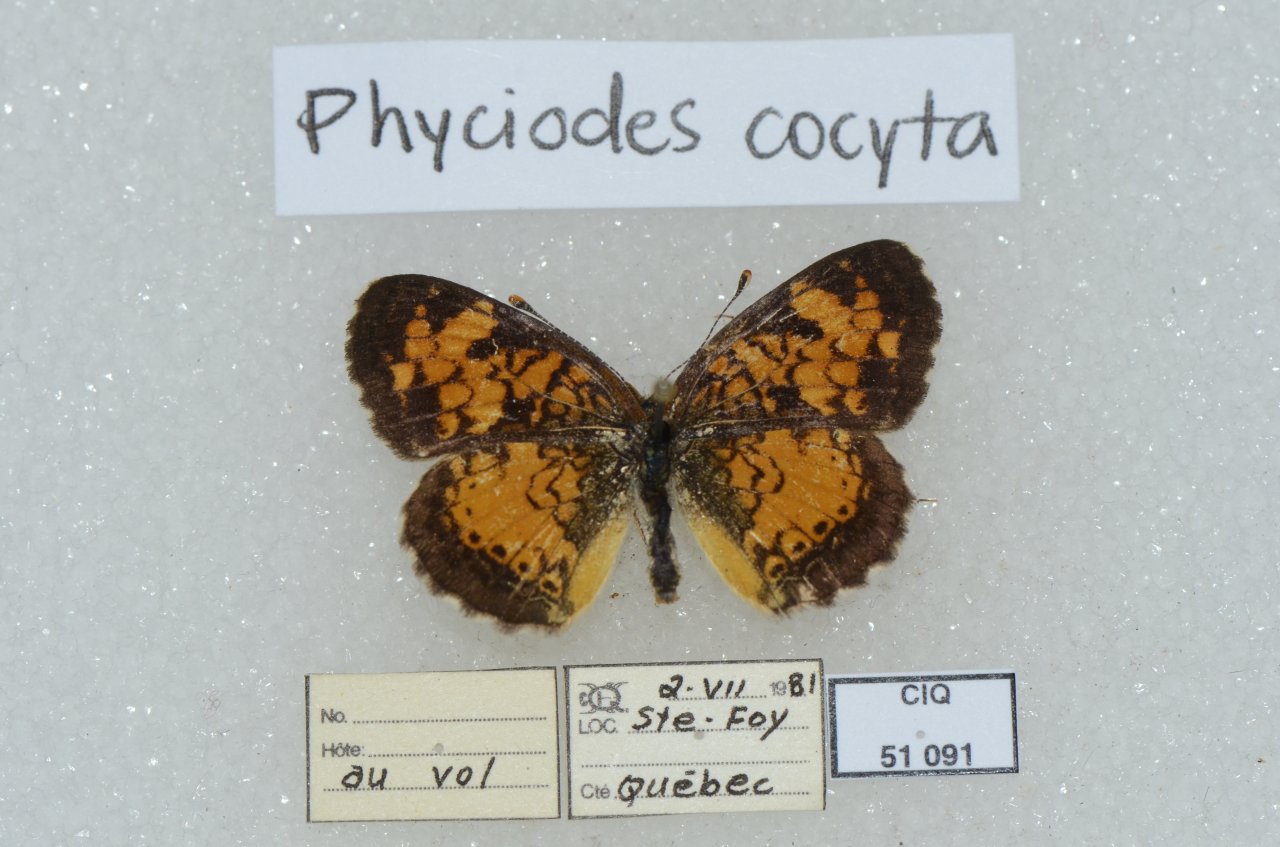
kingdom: Animalia
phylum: Arthropoda
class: Insecta
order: Lepidoptera
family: Nymphalidae
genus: Phyciodes
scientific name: Phyciodes tharos
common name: Northern Crescent
